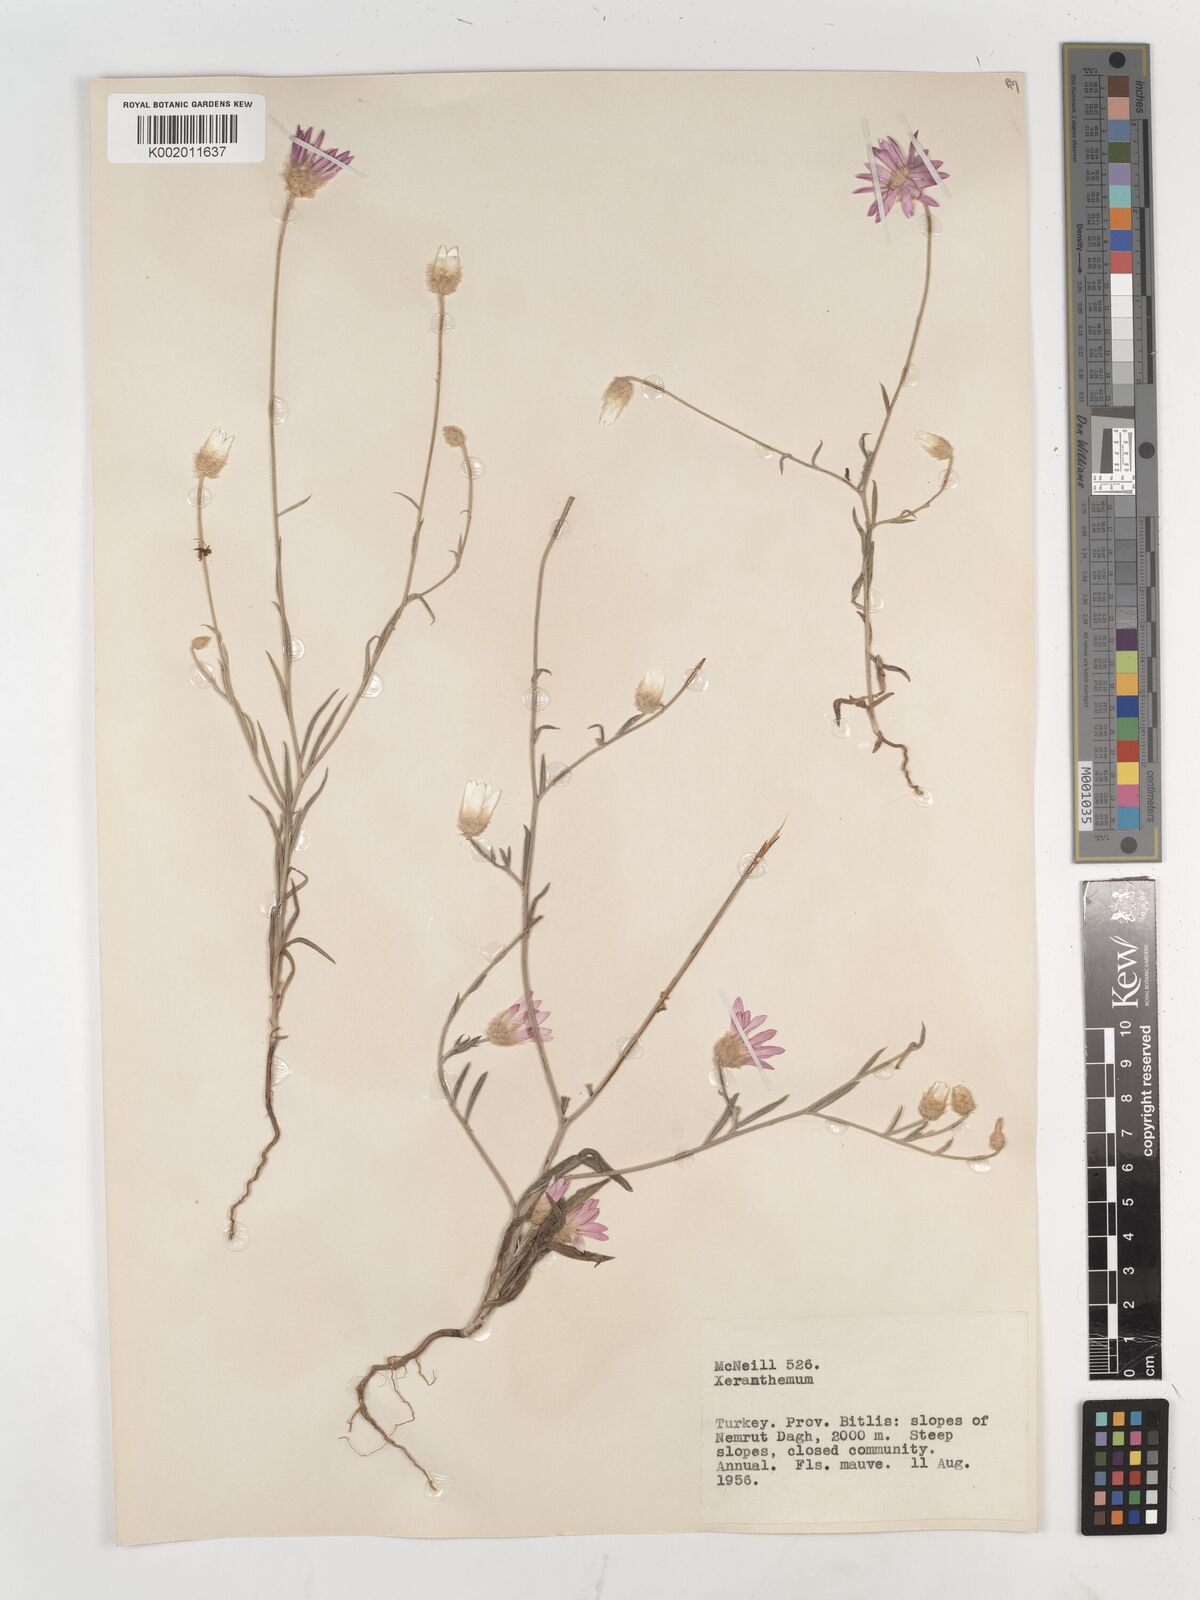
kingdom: Plantae
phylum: Tracheophyta
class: Magnoliopsida
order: Asterales
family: Asteraceae
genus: Xeranthemum
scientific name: Xeranthemum annuum
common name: Immortelle
